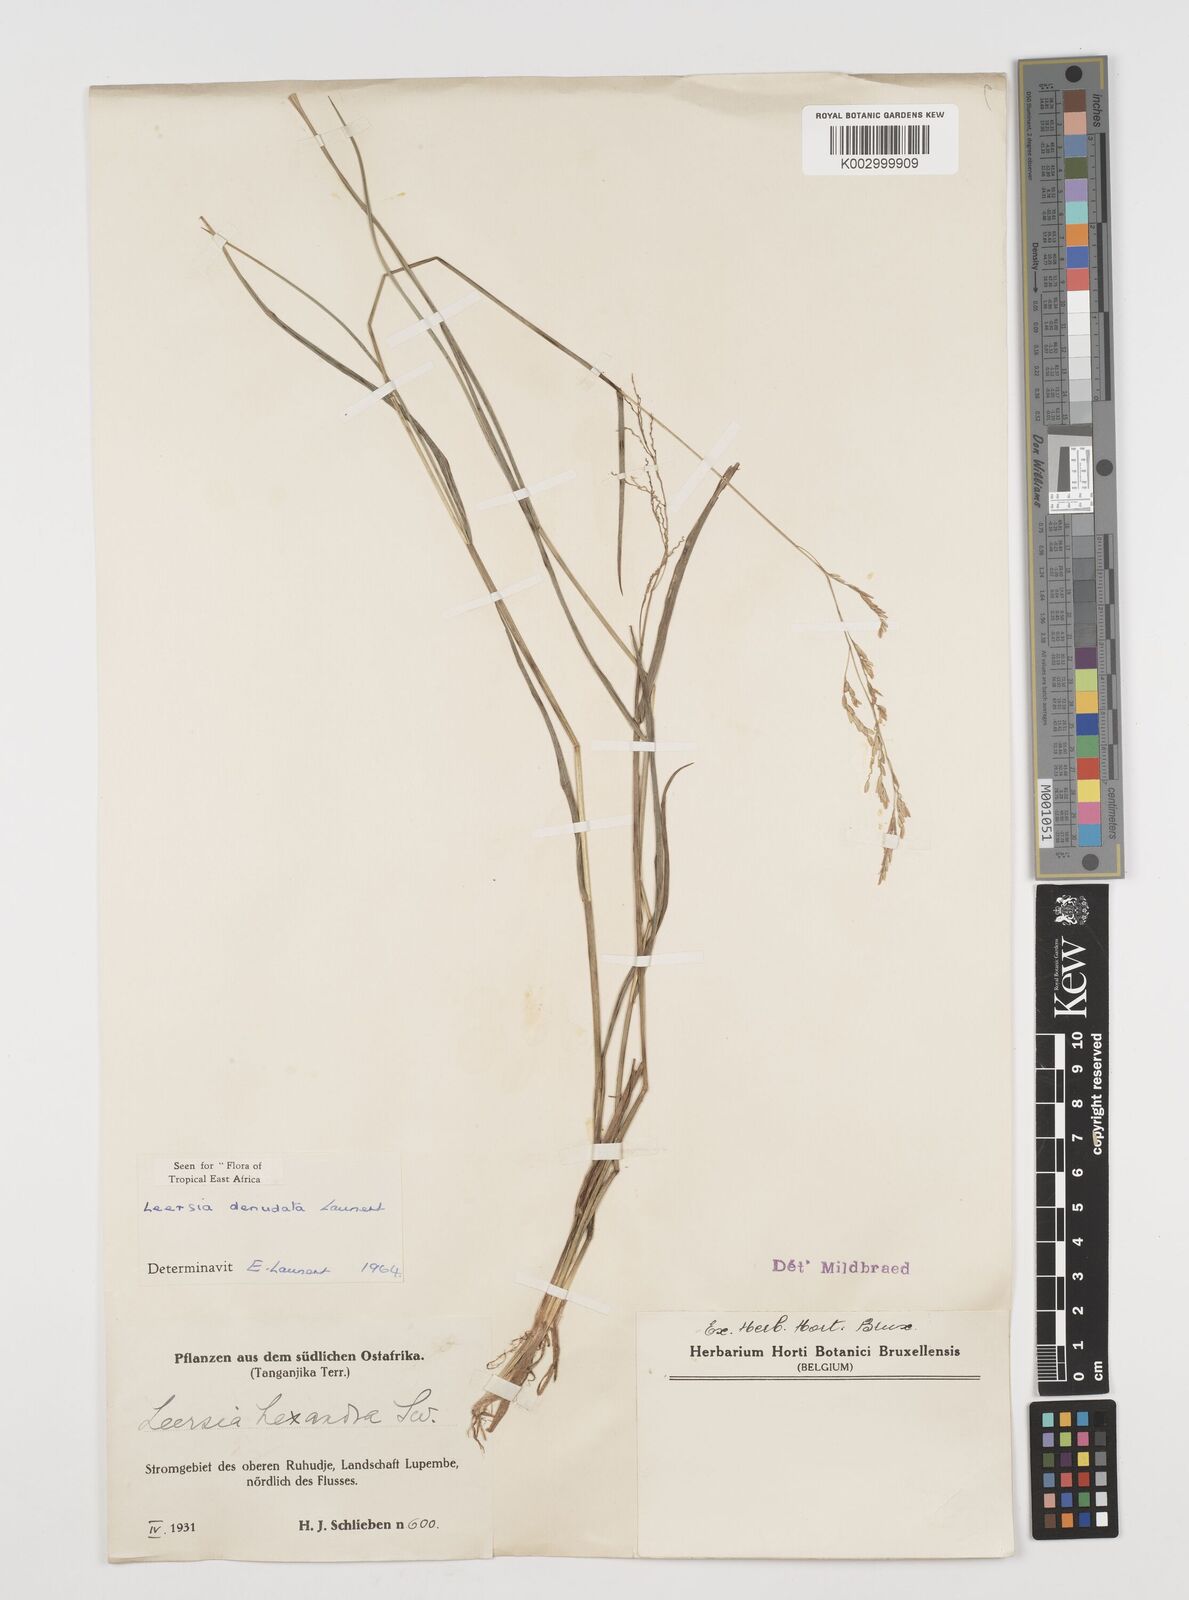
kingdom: Plantae
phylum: Tracheophyta
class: Liliopsida
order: Poales
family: Poaceae
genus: Leersia
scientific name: Leersia denudata
